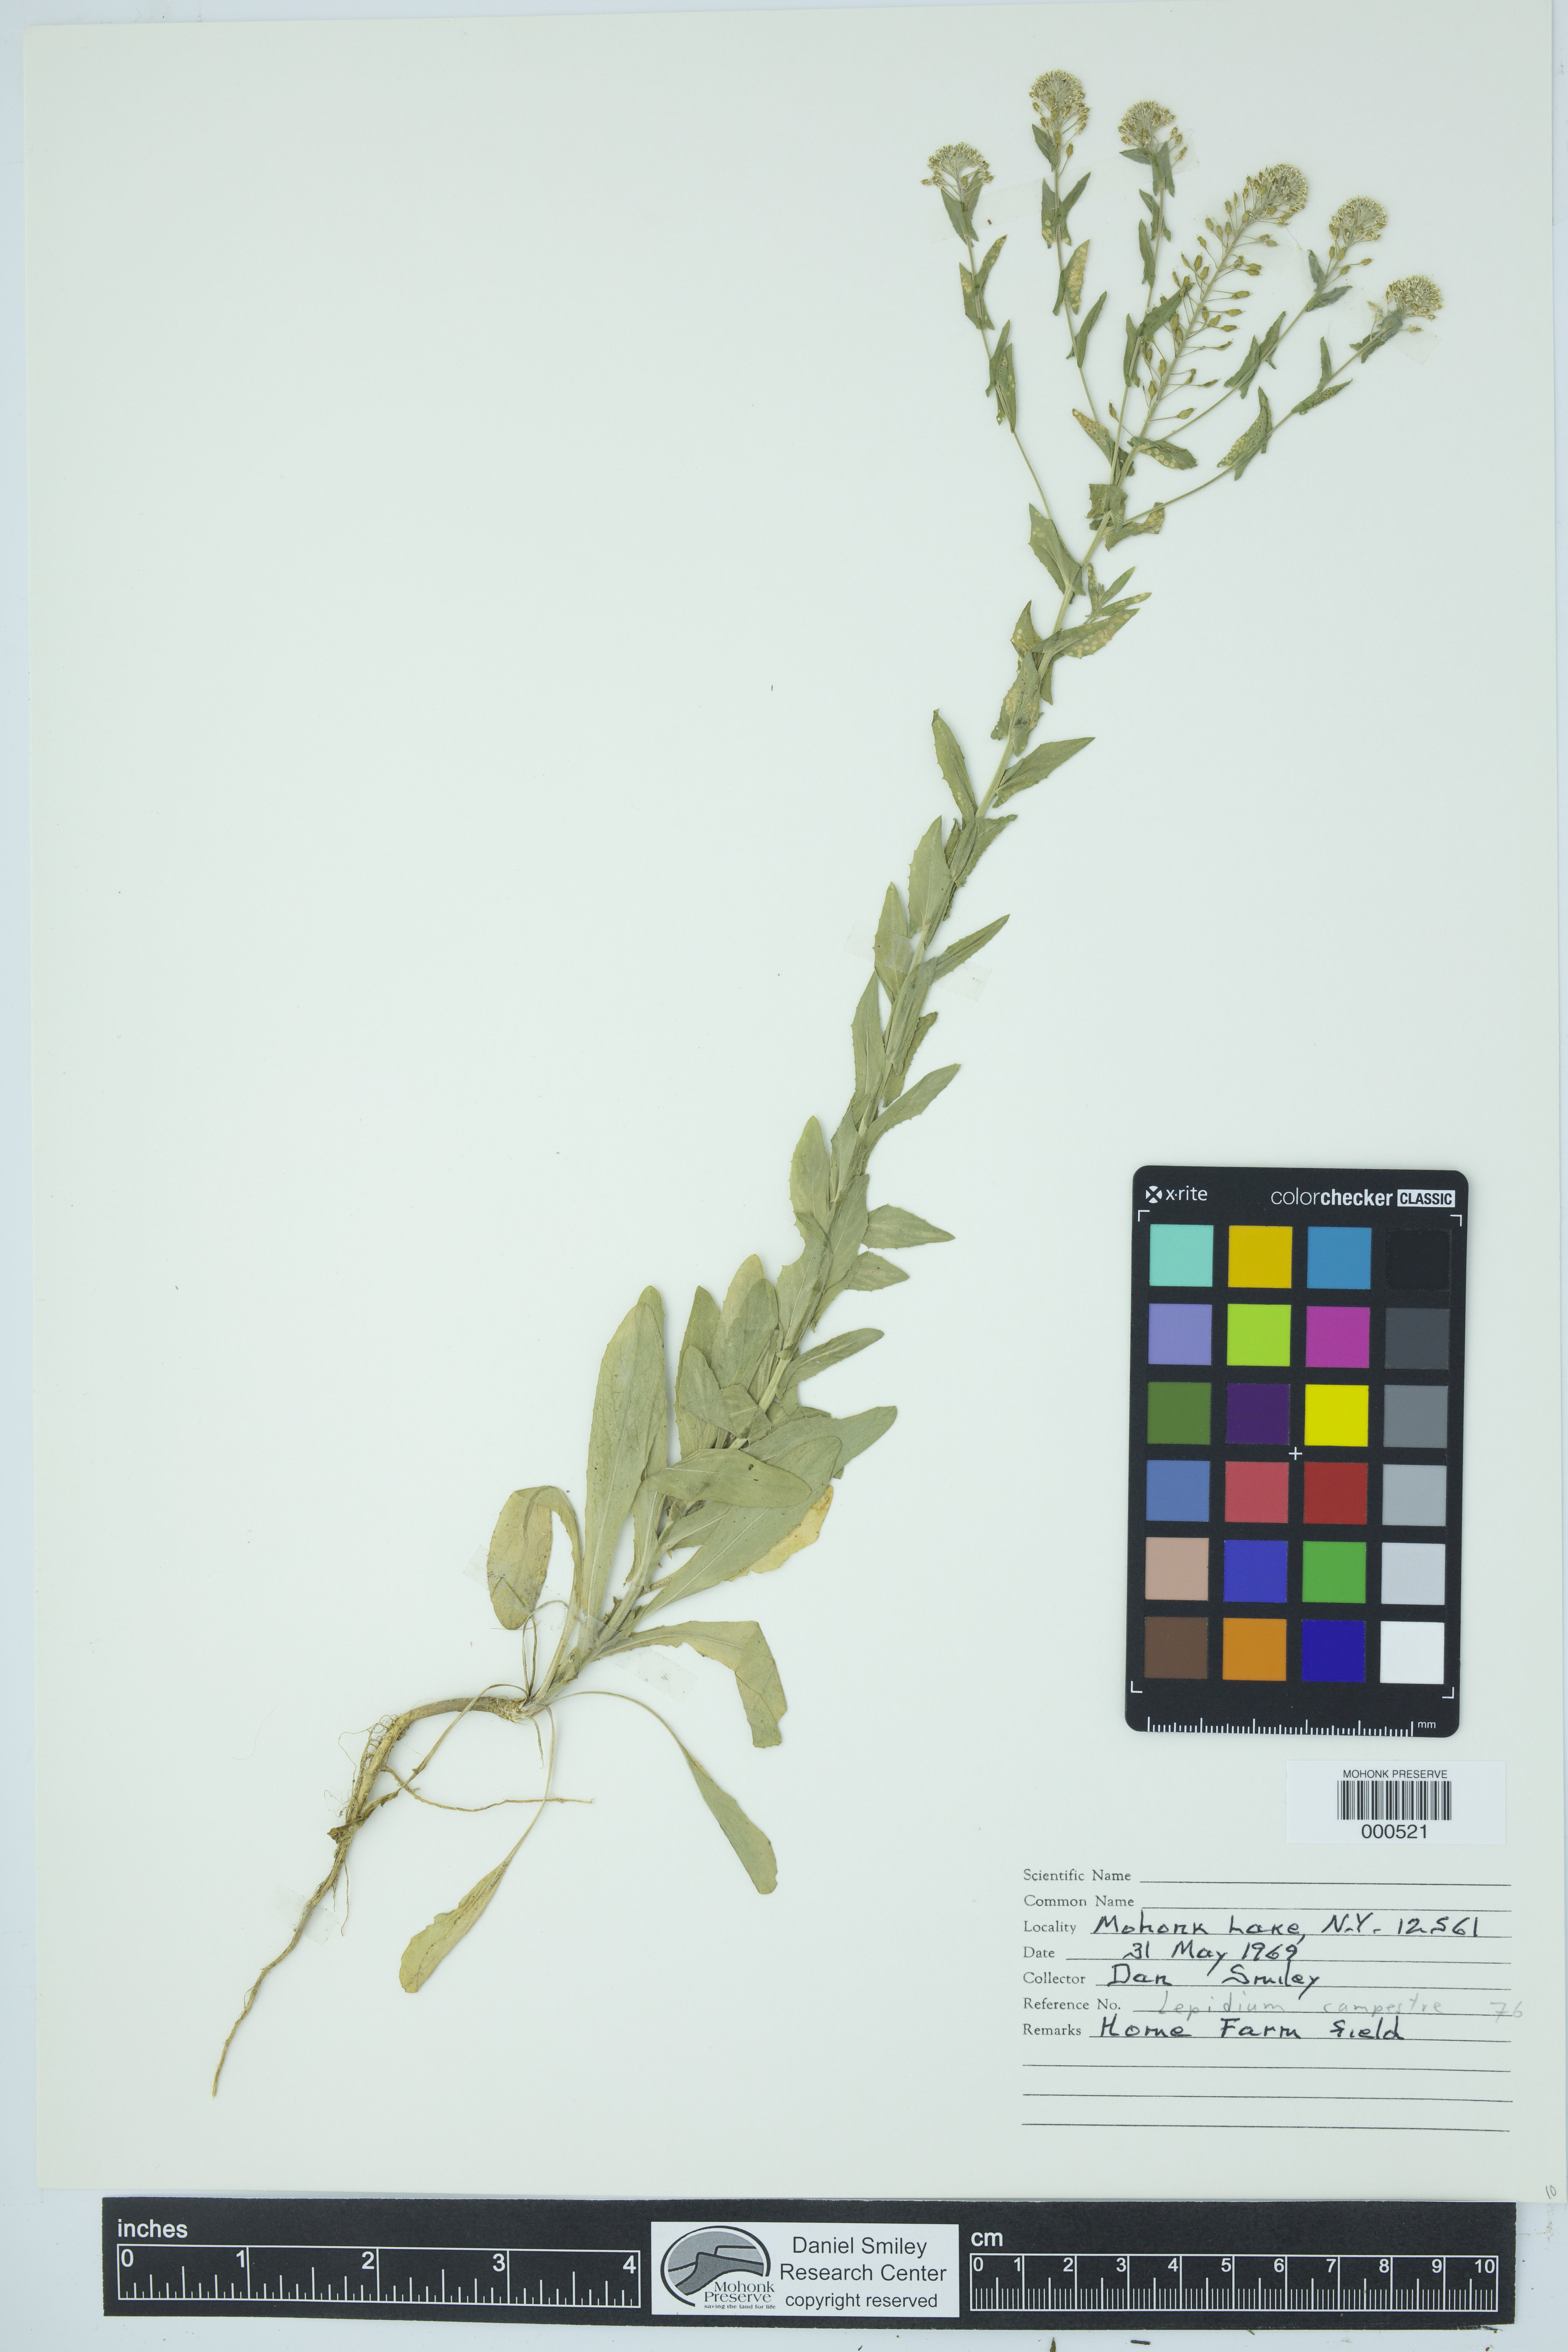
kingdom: Plantae
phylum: Tracheophyta
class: Magnoliopsida
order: Brassicales
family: Brassicaceae
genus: Lepidium
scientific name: Lepidium campestre
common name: Field pepperwort
